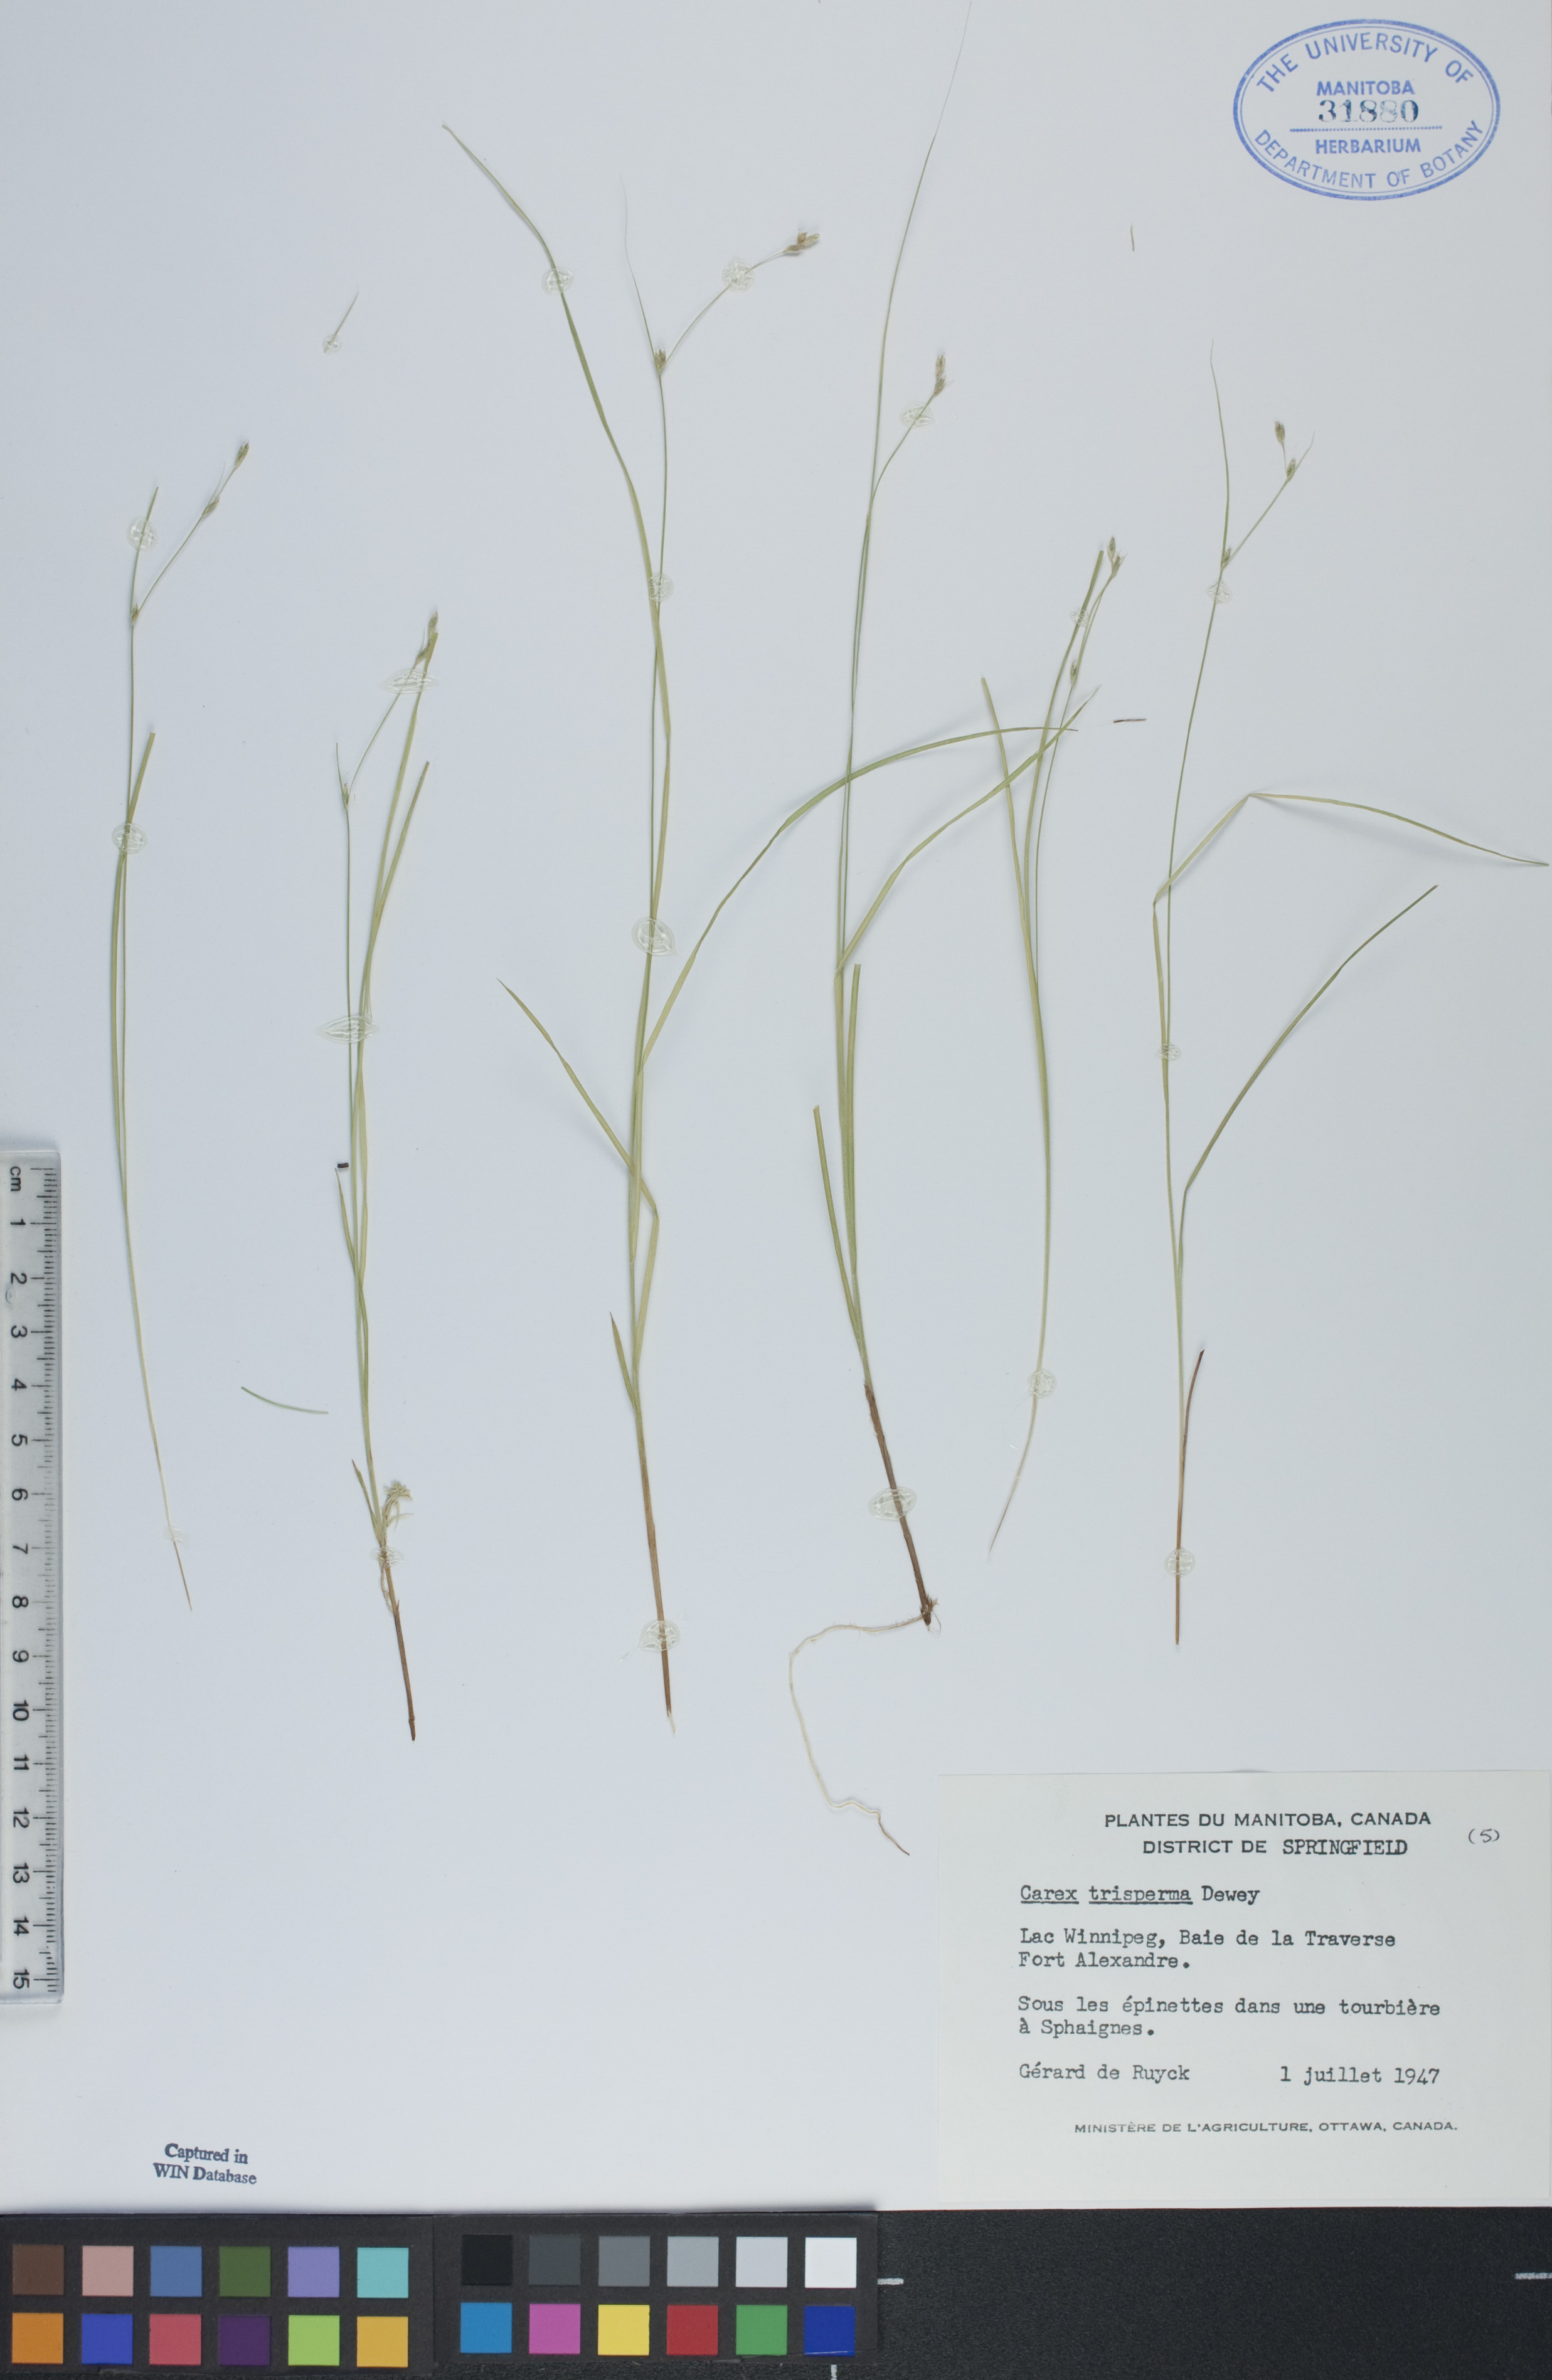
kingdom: Plantae
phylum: Tracheophyta
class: Liliopsida
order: Poales
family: Cyperaceae
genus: Carex
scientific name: Carex trisperma
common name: Three-seeded sedge
